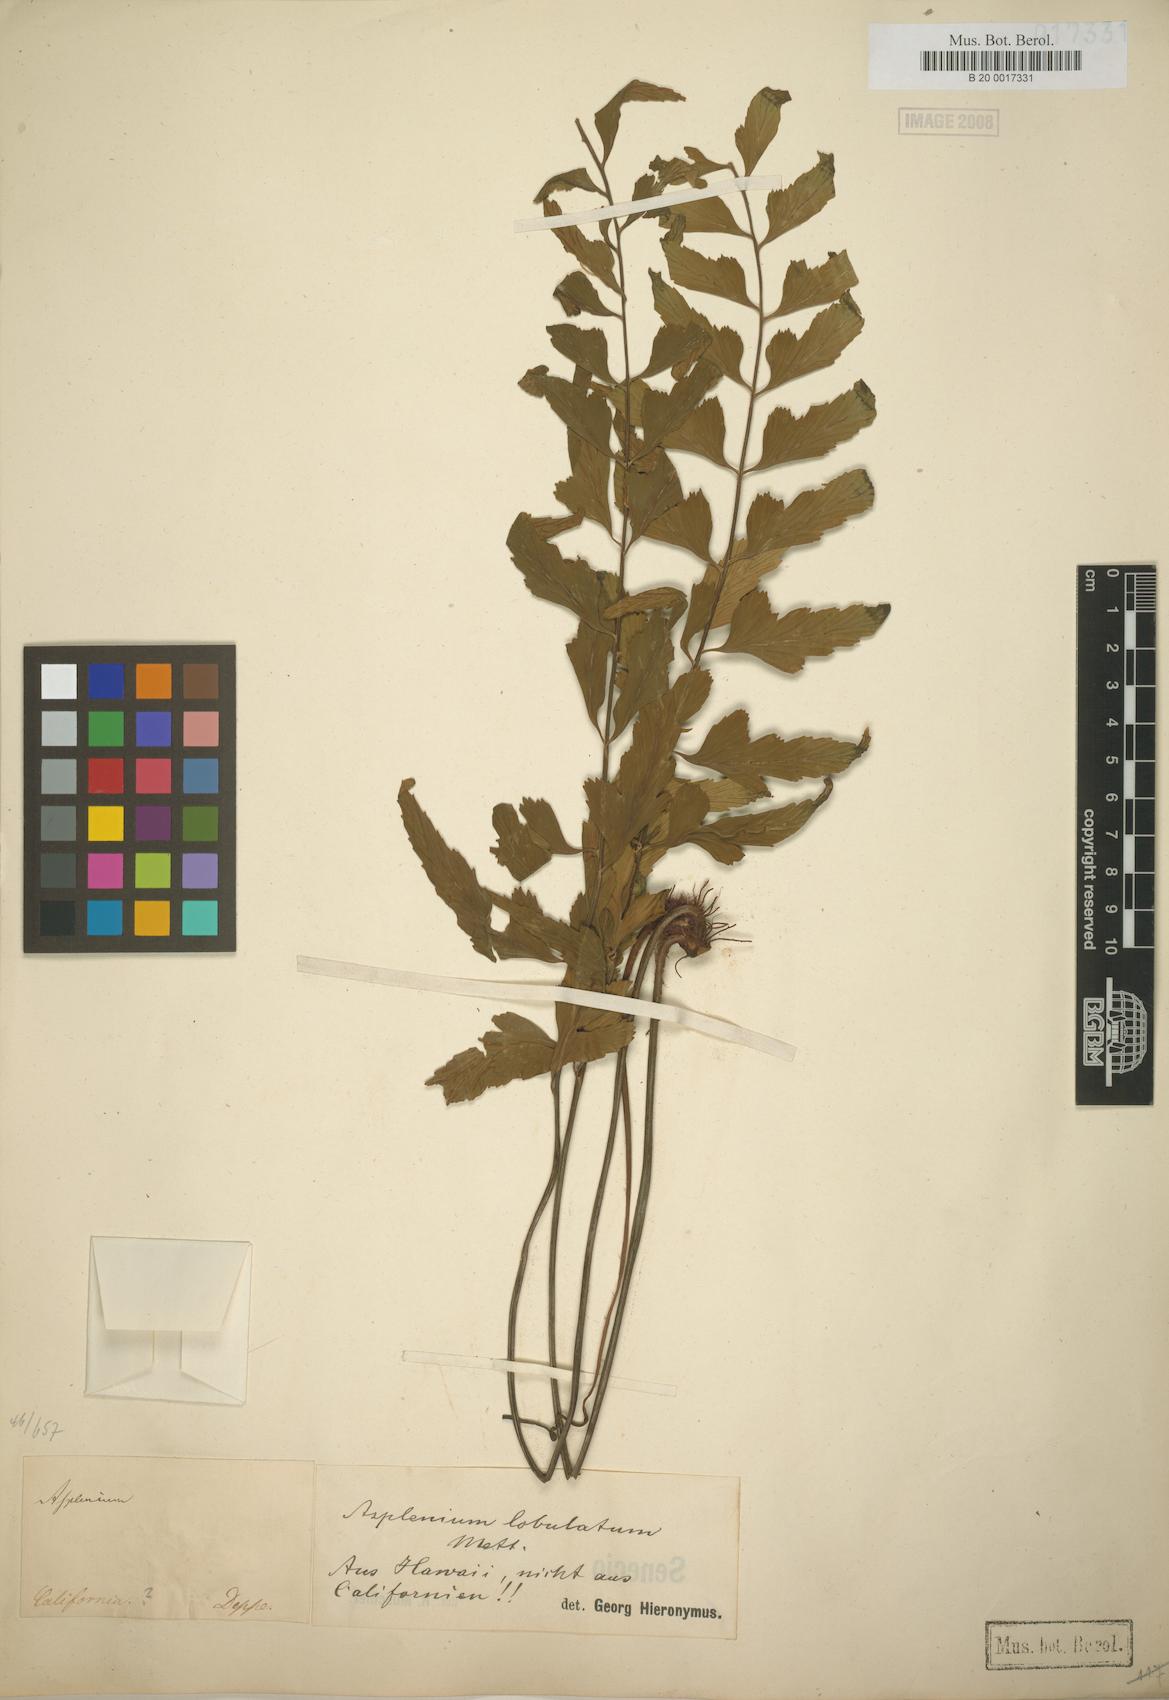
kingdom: Plantae
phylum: Tracheophyta
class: Polypodiopsida
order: Polypodiales
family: Aspleniaceae
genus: Asplenium
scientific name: Asplenium lobulatum
